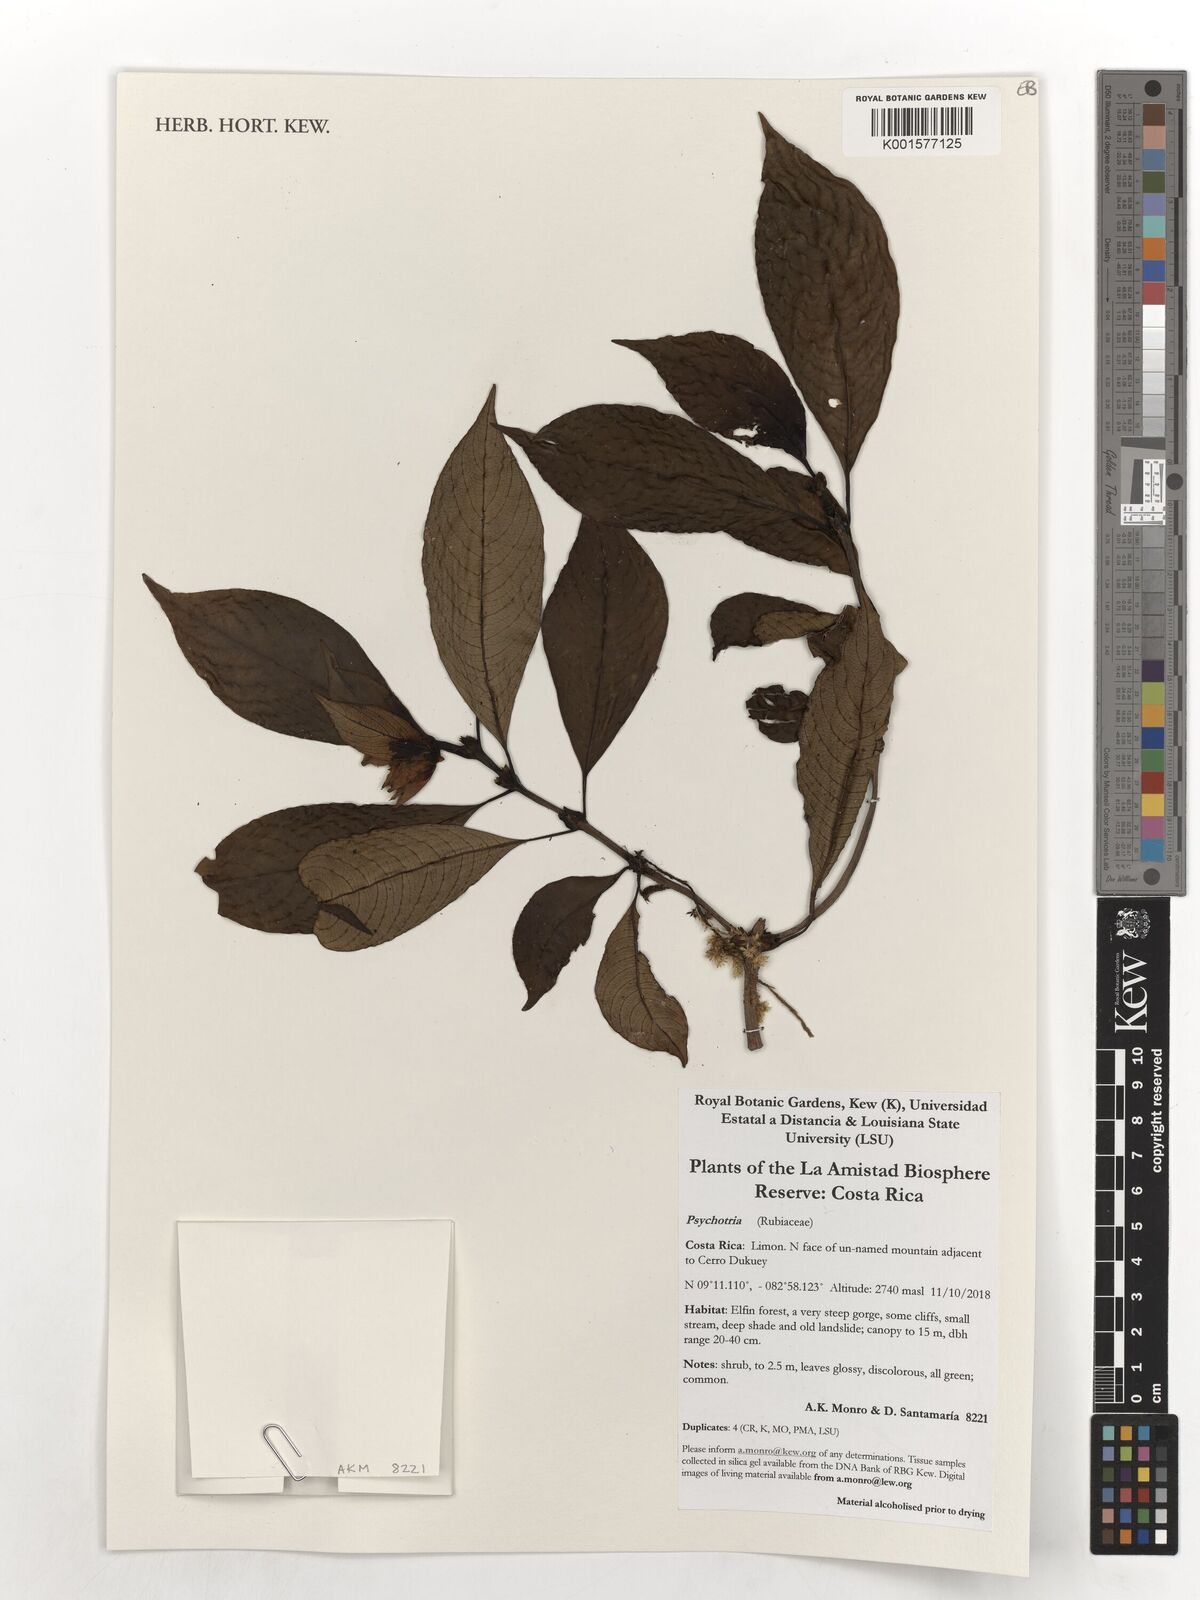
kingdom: Plantae
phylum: Tracheophyta
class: Magnoliopsida
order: Gentianales
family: Rubiaceae
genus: Psychotria
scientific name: Psychotria
